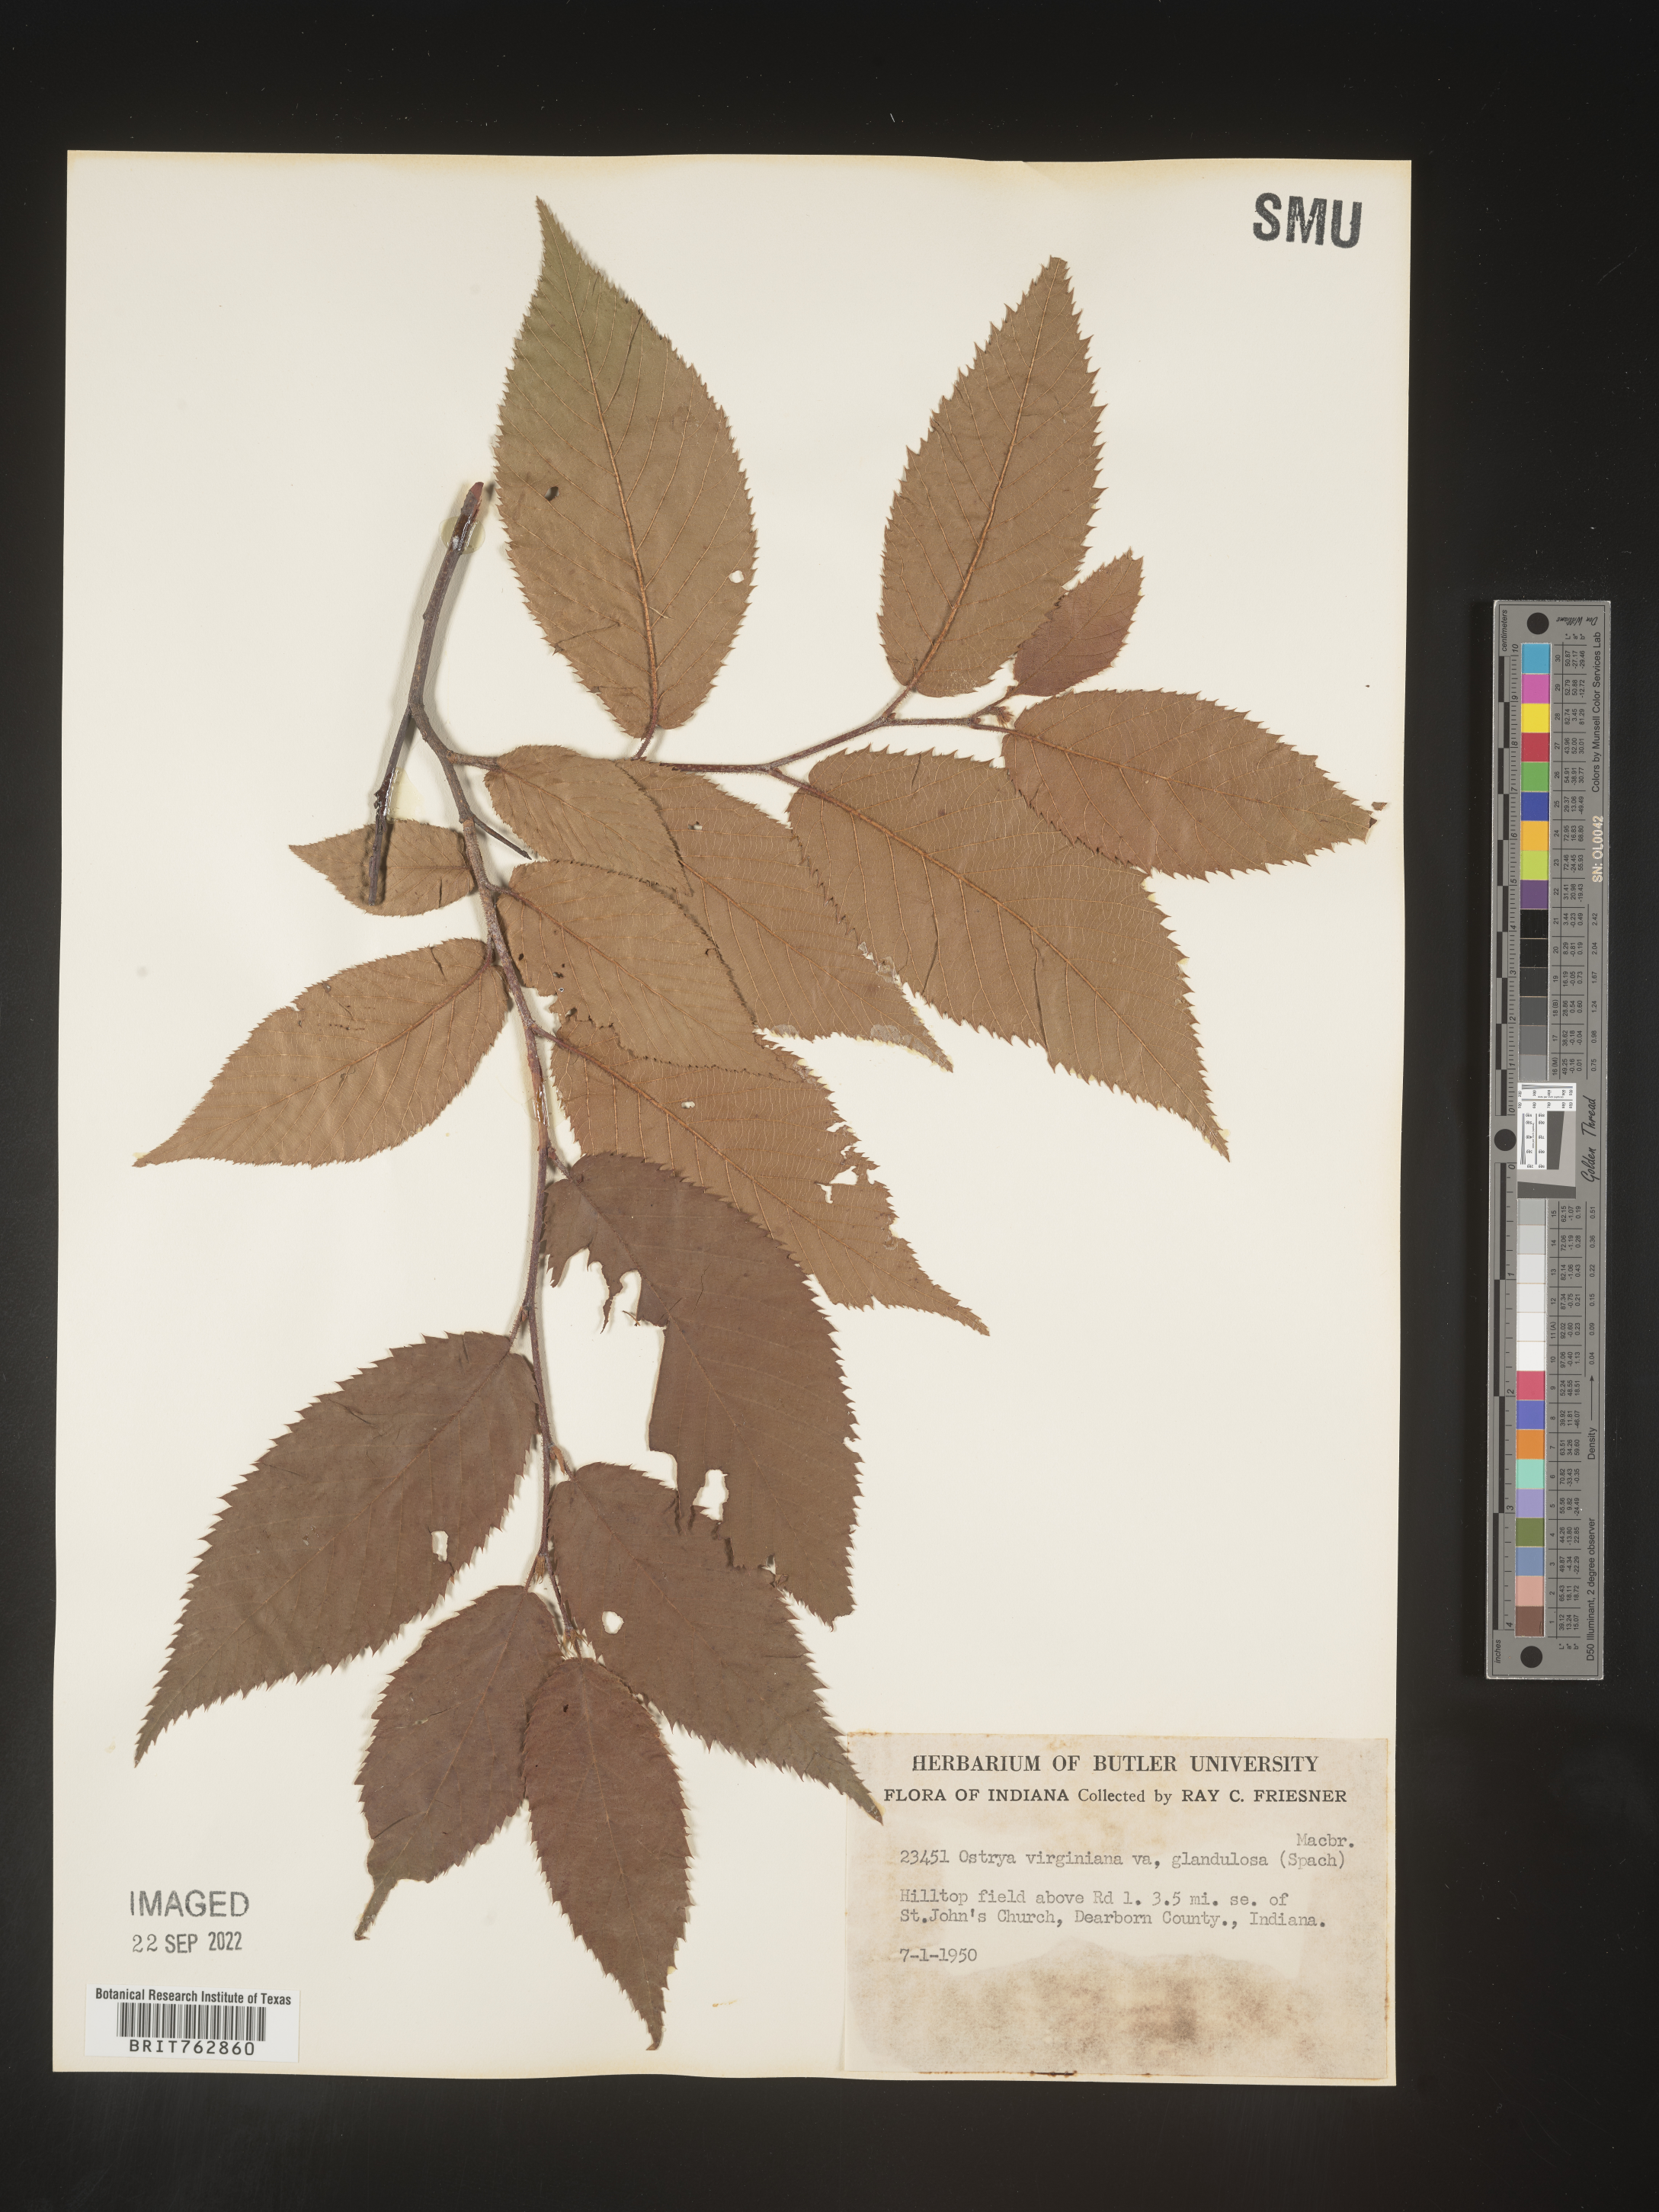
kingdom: Plantae
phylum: Tracheophyta
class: Magnoliopsida
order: Fagales
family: Betulaceae
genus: Ostrya
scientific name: Ostrya virginiana
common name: Ironwood
